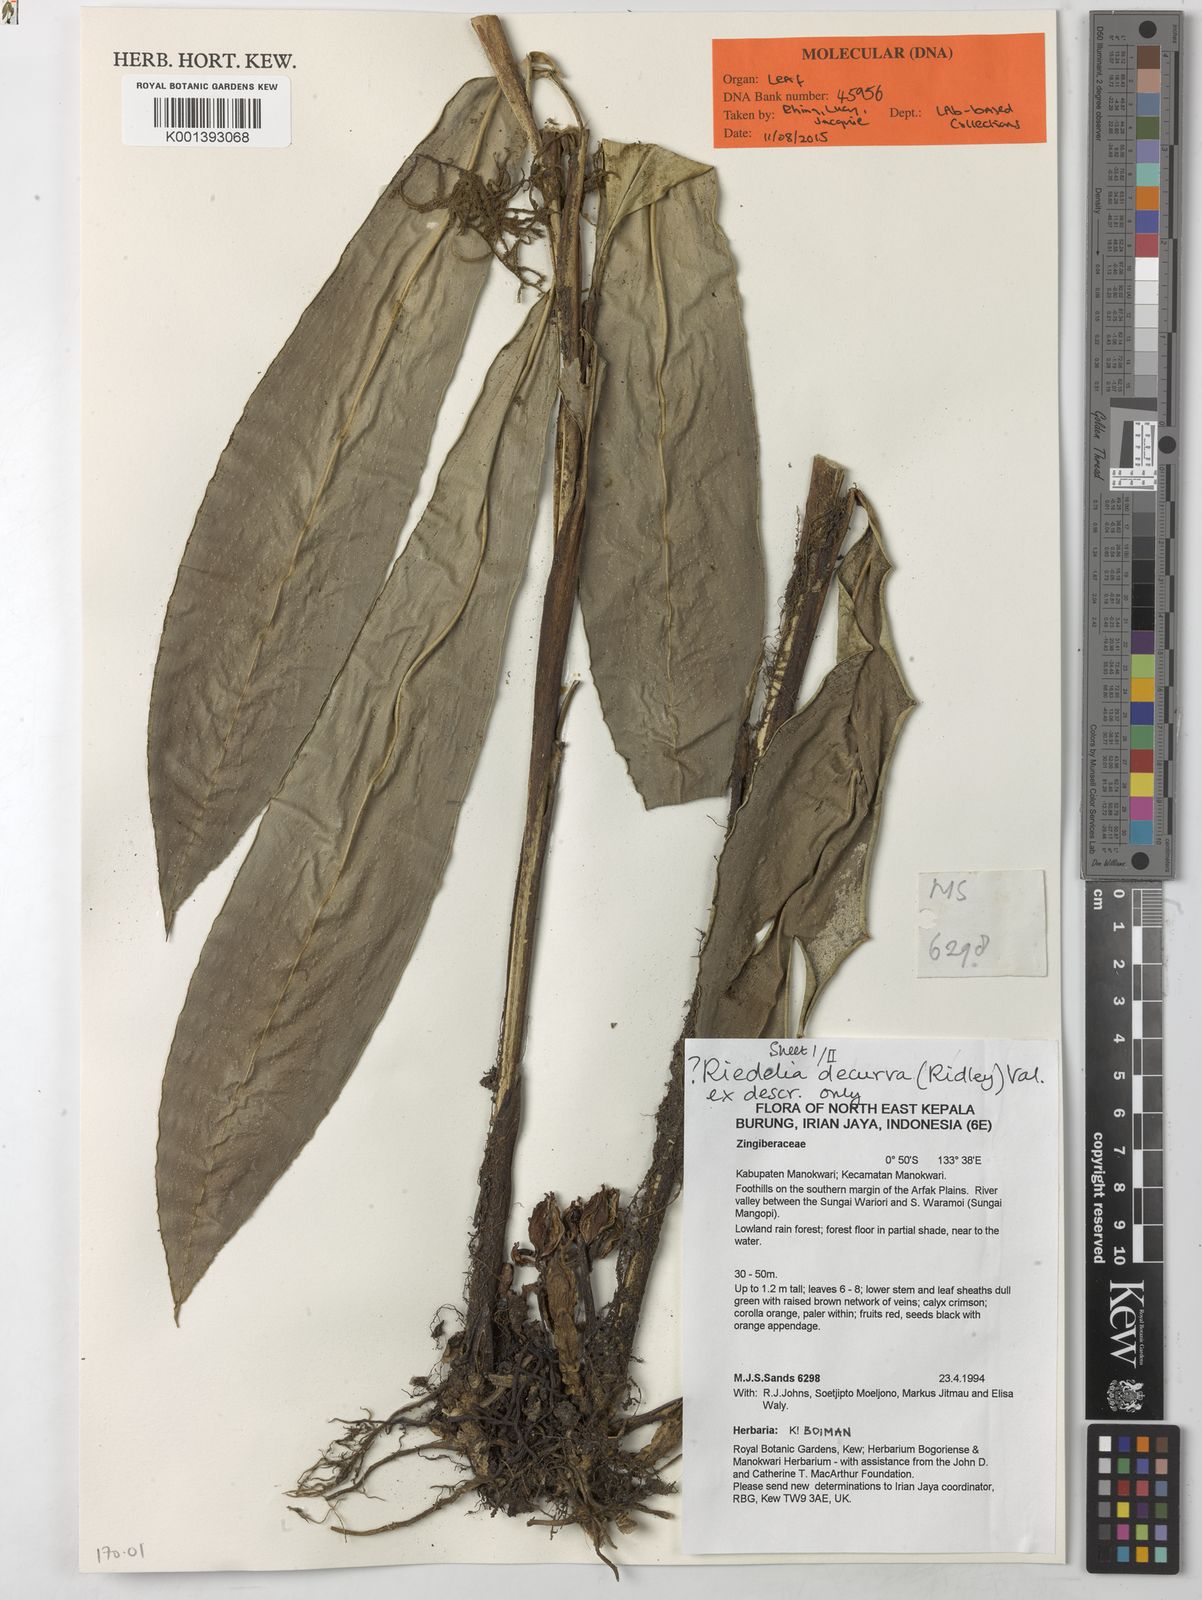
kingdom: Plantae
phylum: Tracheophyta
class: Liliopsida
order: Zingiberales
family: Zingiberaceae
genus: Riedelia
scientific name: Riedelia decurva
